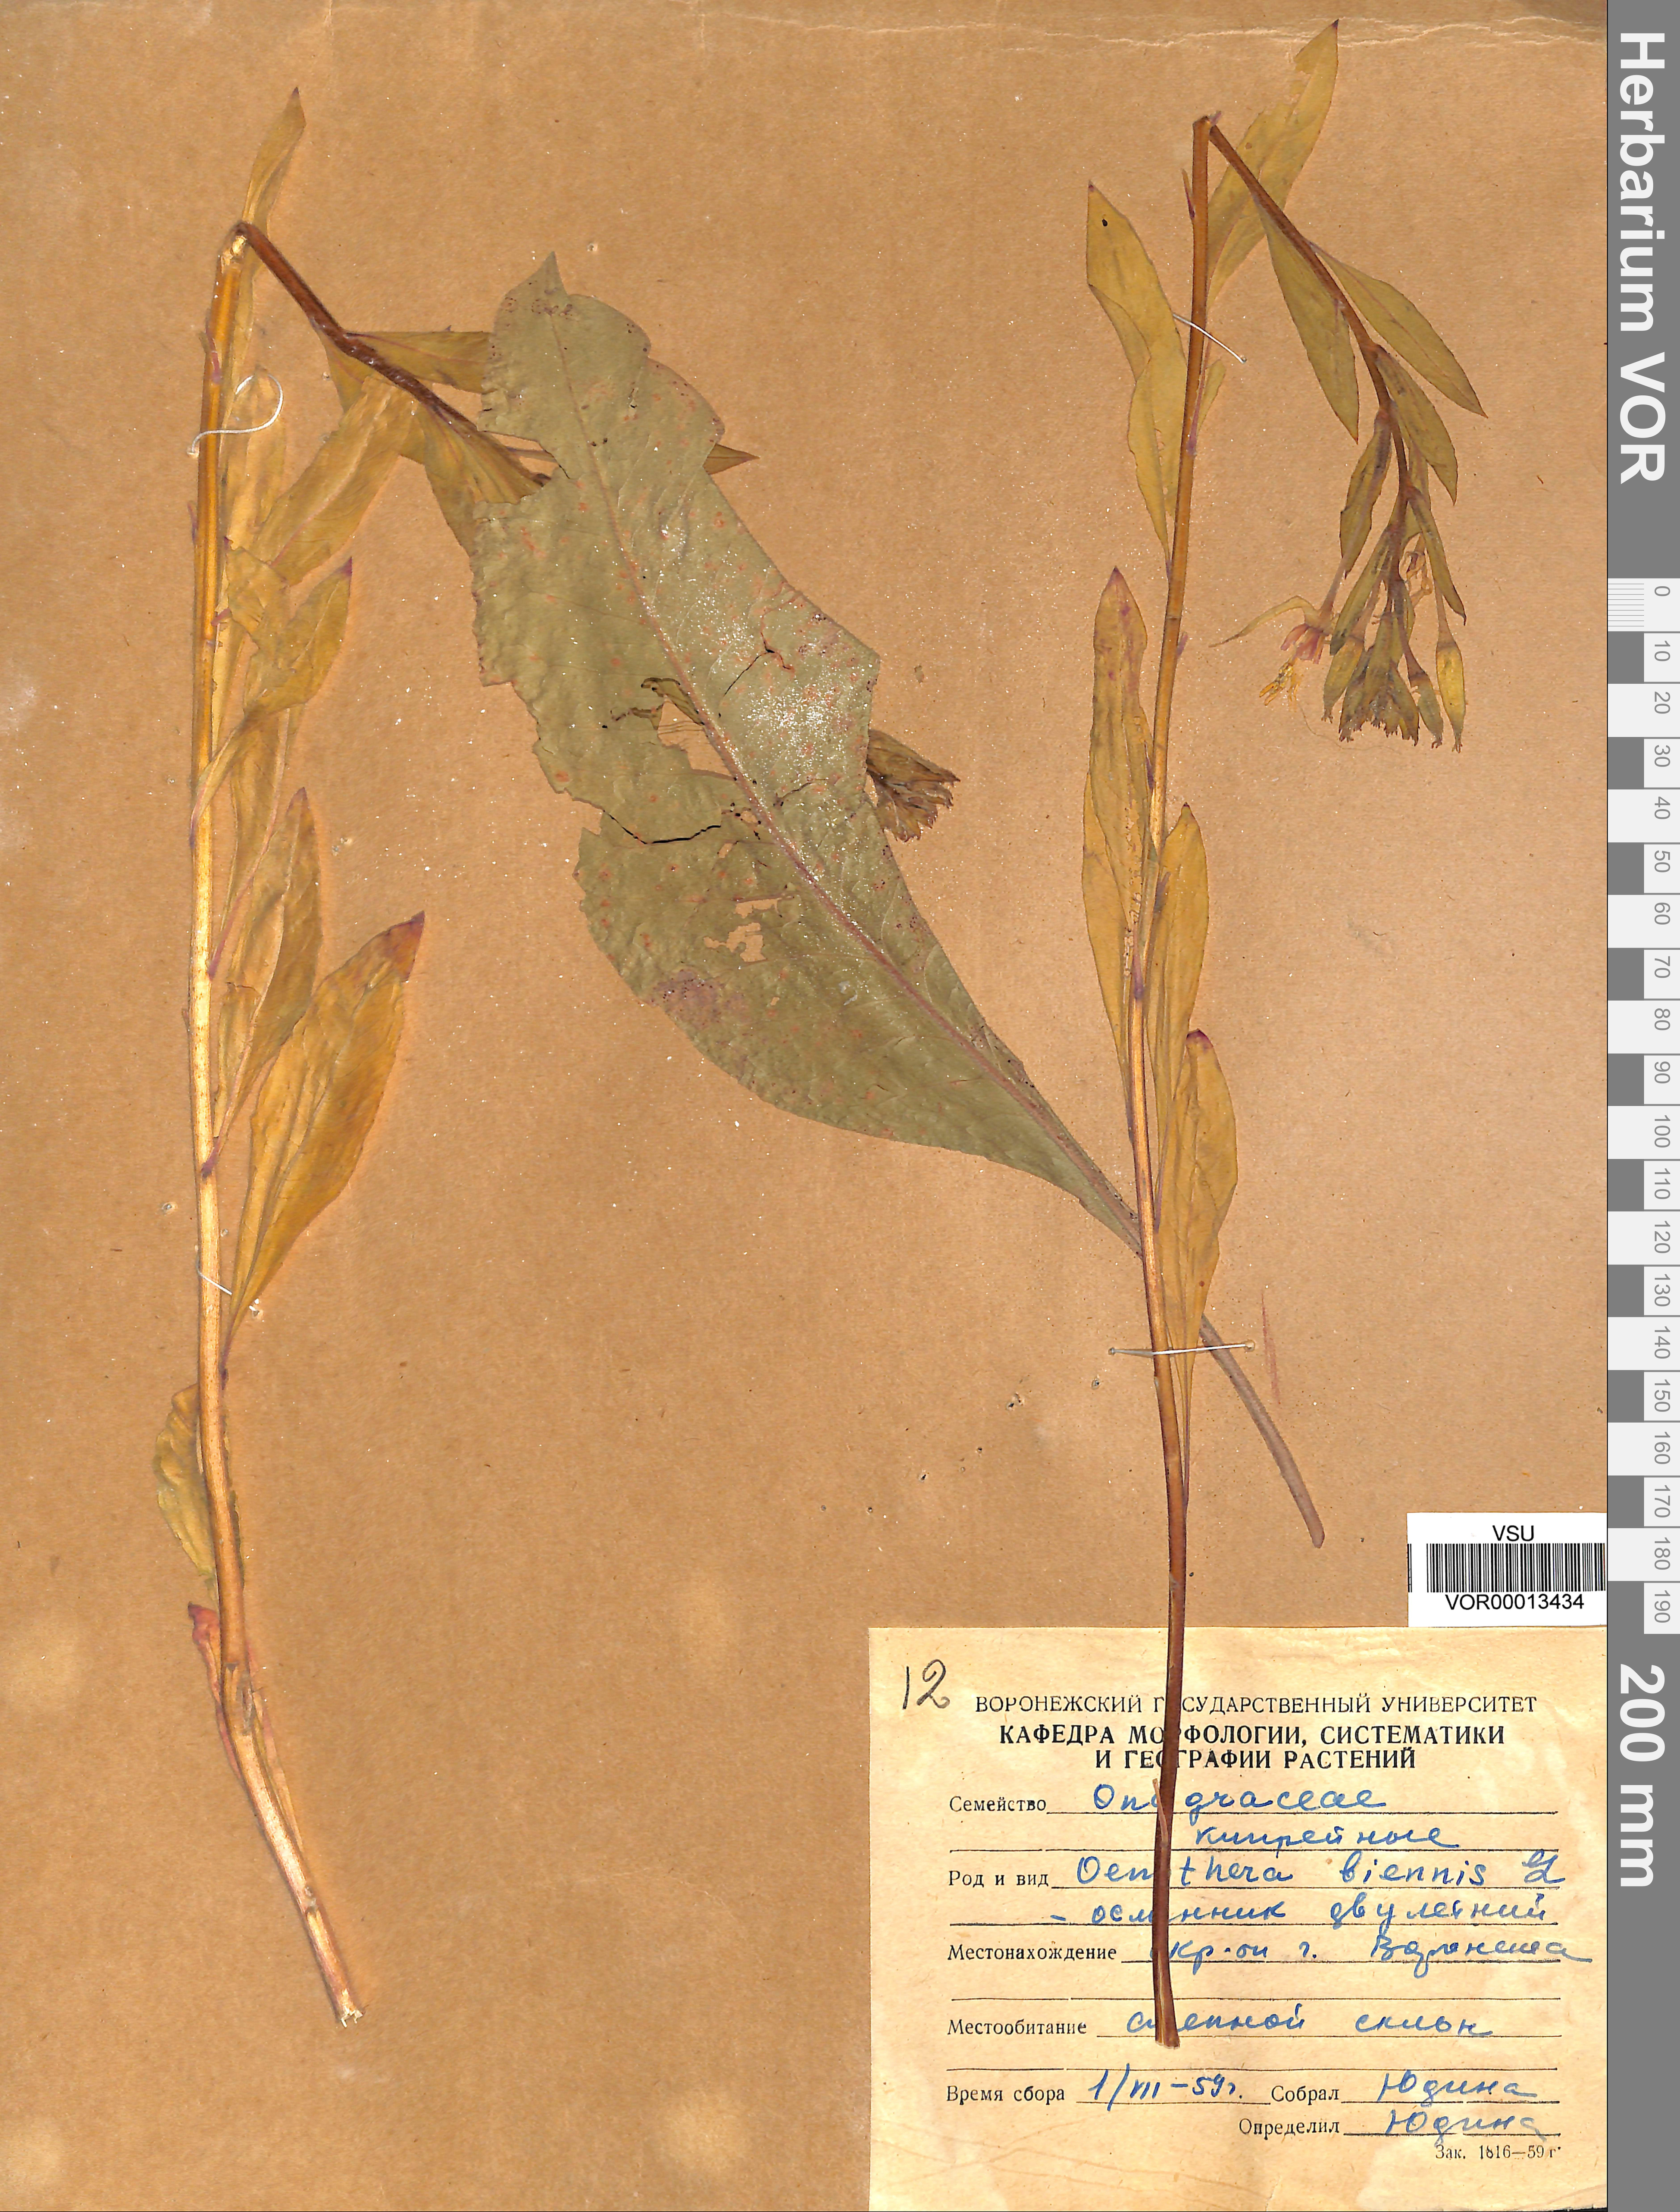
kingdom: Plantae
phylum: Tracheophyta
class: Magnoliopsida
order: Myrtales
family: Onagraceae
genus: Oenothera
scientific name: Oenothera biennis
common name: Common evening-primrose
